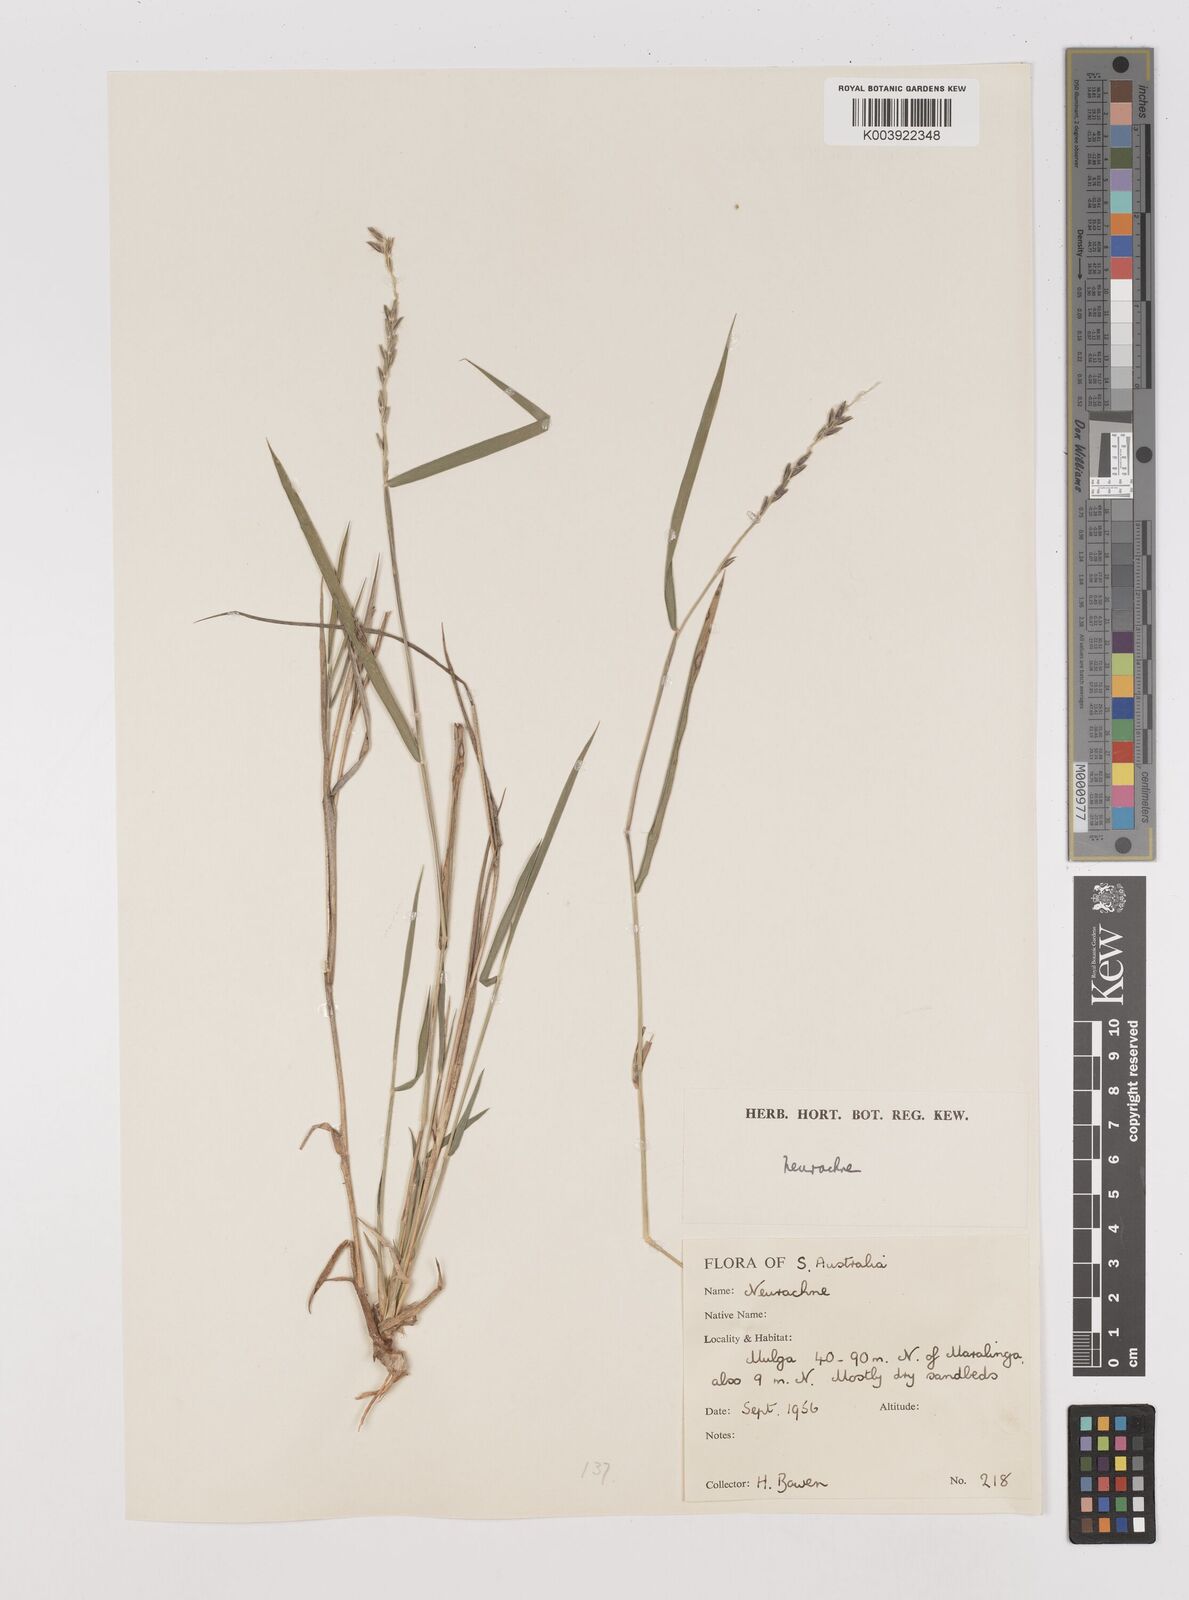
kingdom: Plantae
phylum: Tracheophyta
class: Liliopsida
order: Poales
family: Poaceae
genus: Thyridolepis
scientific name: Thyridolepis mitchelliana
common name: Rock tassel grass
